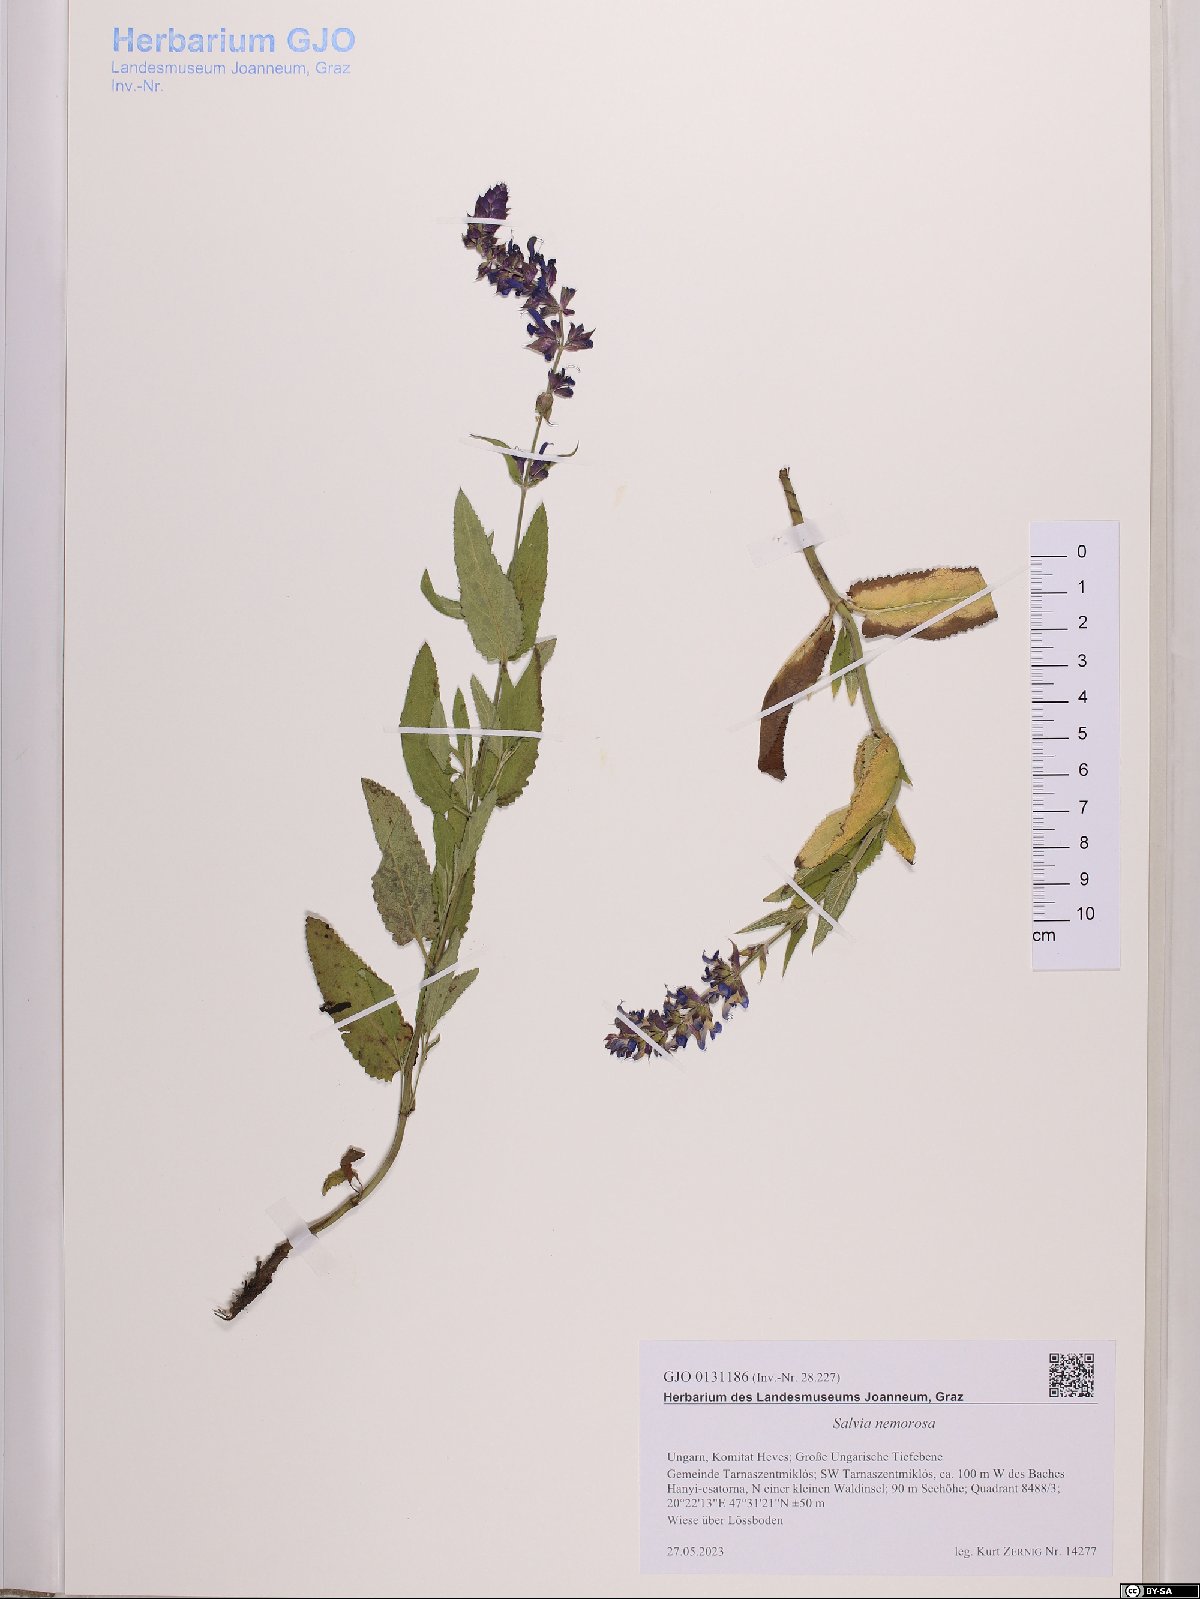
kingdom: Plantae
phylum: Tracheophyta
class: Magnoliopsida
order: Lamiales
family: Lamiaceae
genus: Salvia
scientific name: Salvia nemorosa
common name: Balkan clary
